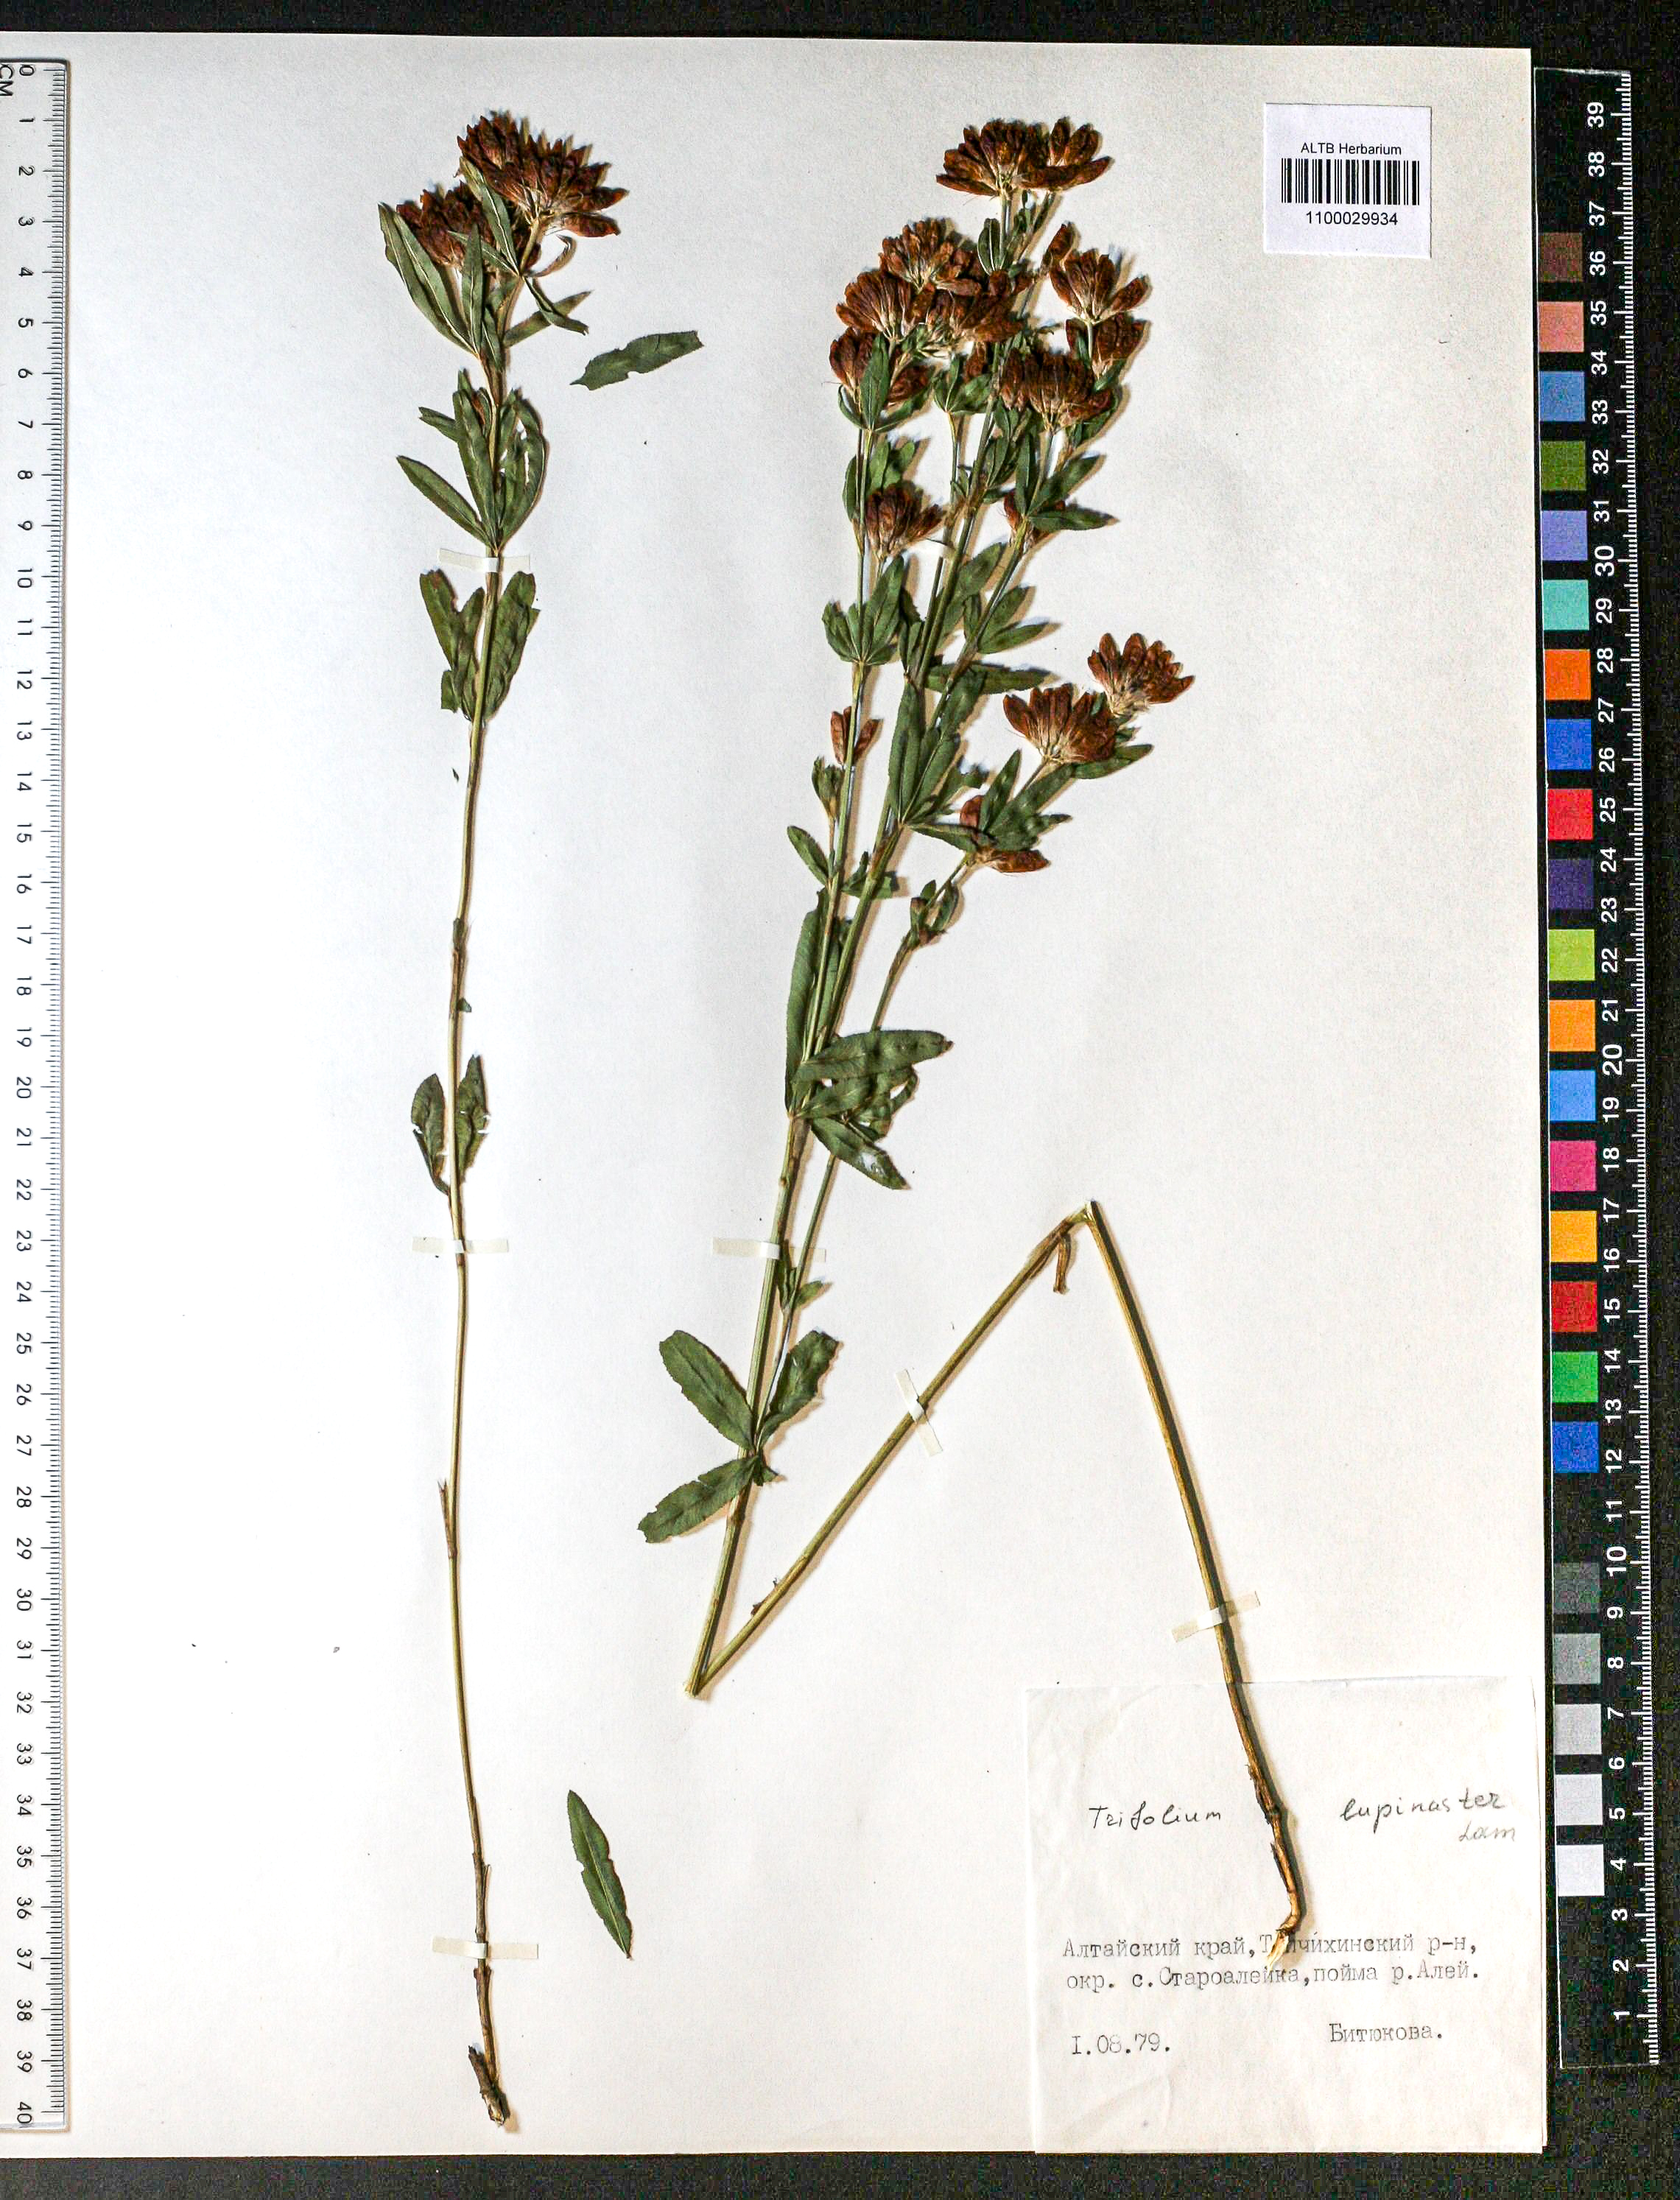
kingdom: Plantae
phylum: Tracheophyta
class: Magnoliopsida
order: Fabales
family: Fabaceae
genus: Trifolium
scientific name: Trifolium lupinaster
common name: Lupine clover
